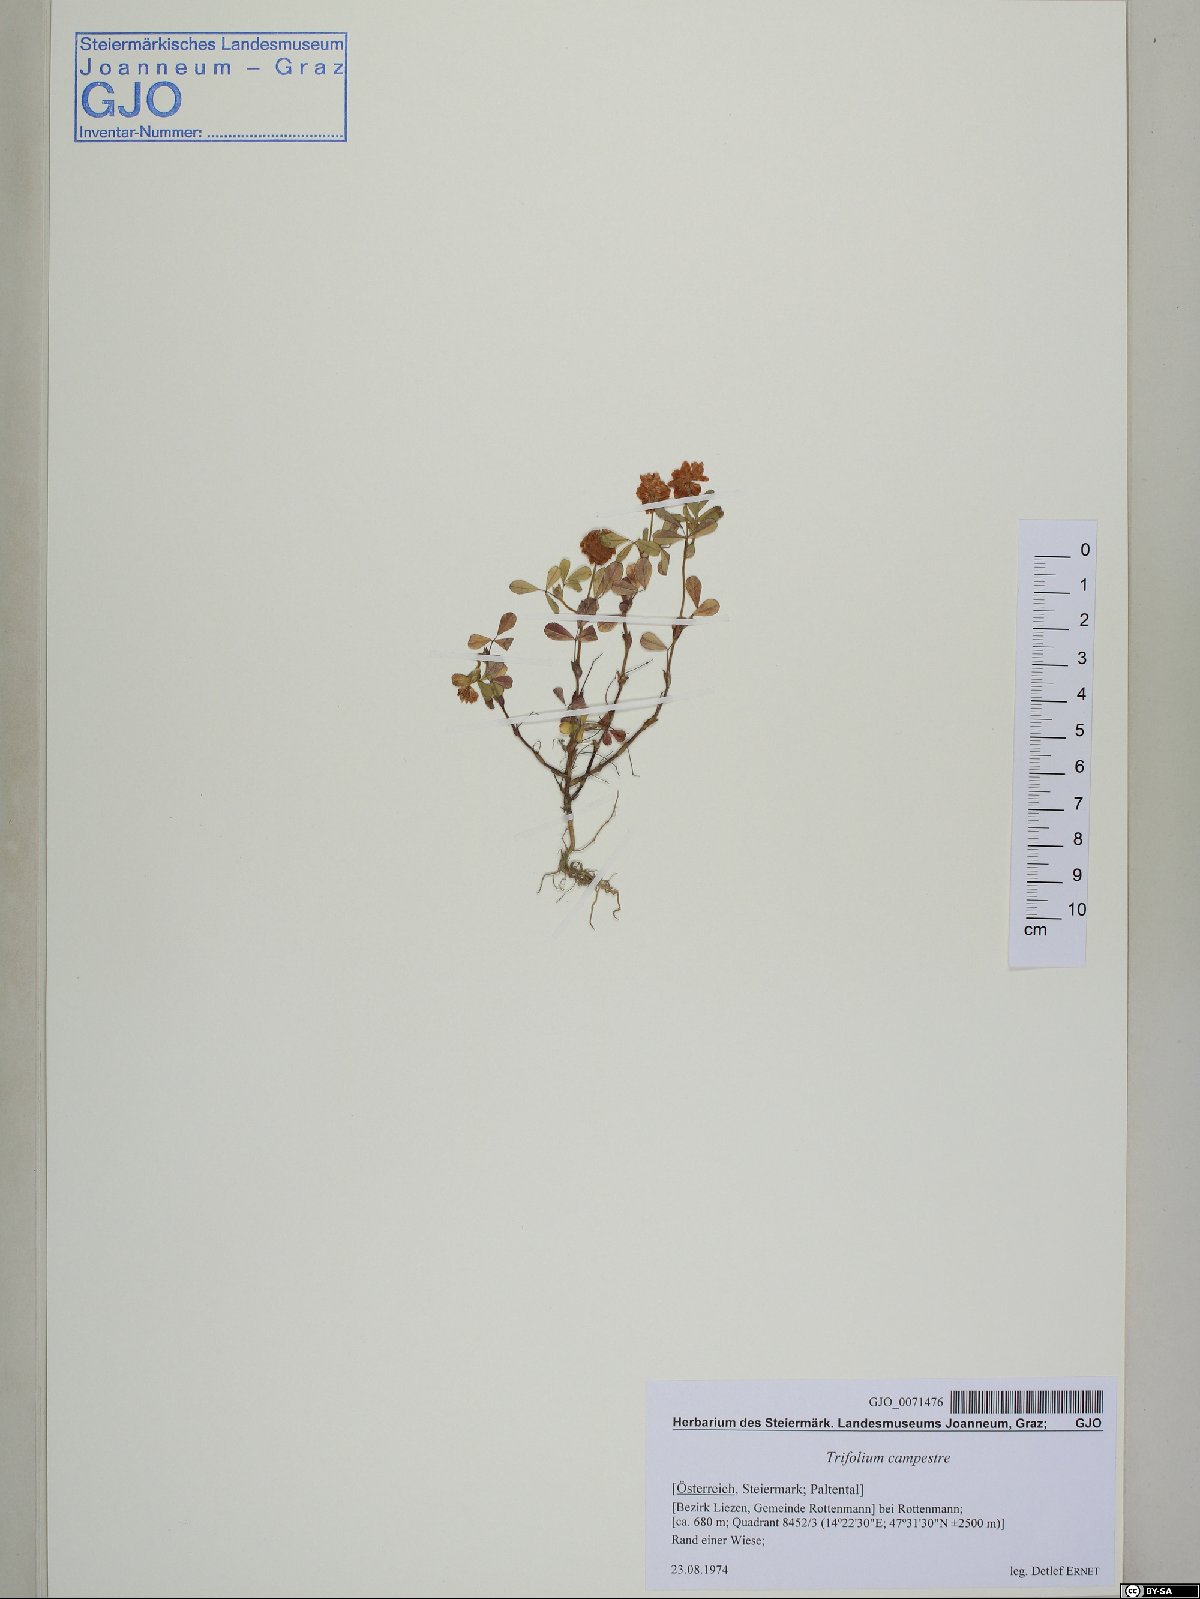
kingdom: Plantae
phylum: Tracheophyta
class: Magnoliopsida
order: Fabales
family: Fabaceae
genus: Trifolium
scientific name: Trifolium campestre
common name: Field clover
